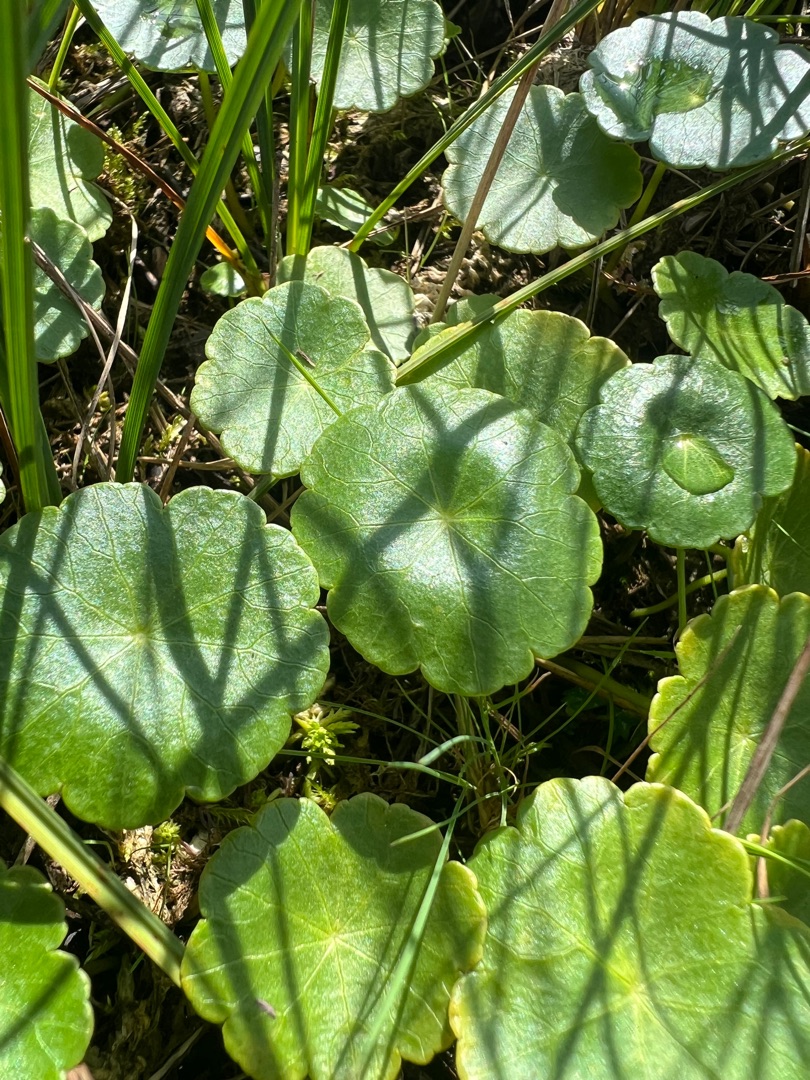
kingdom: Plantae
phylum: Tracheophyta
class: Magnoliopsida
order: Apiales
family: Araliaceae
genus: Hydrocotyle
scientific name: Hydrocotyle vulgaris
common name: Vandnavle
